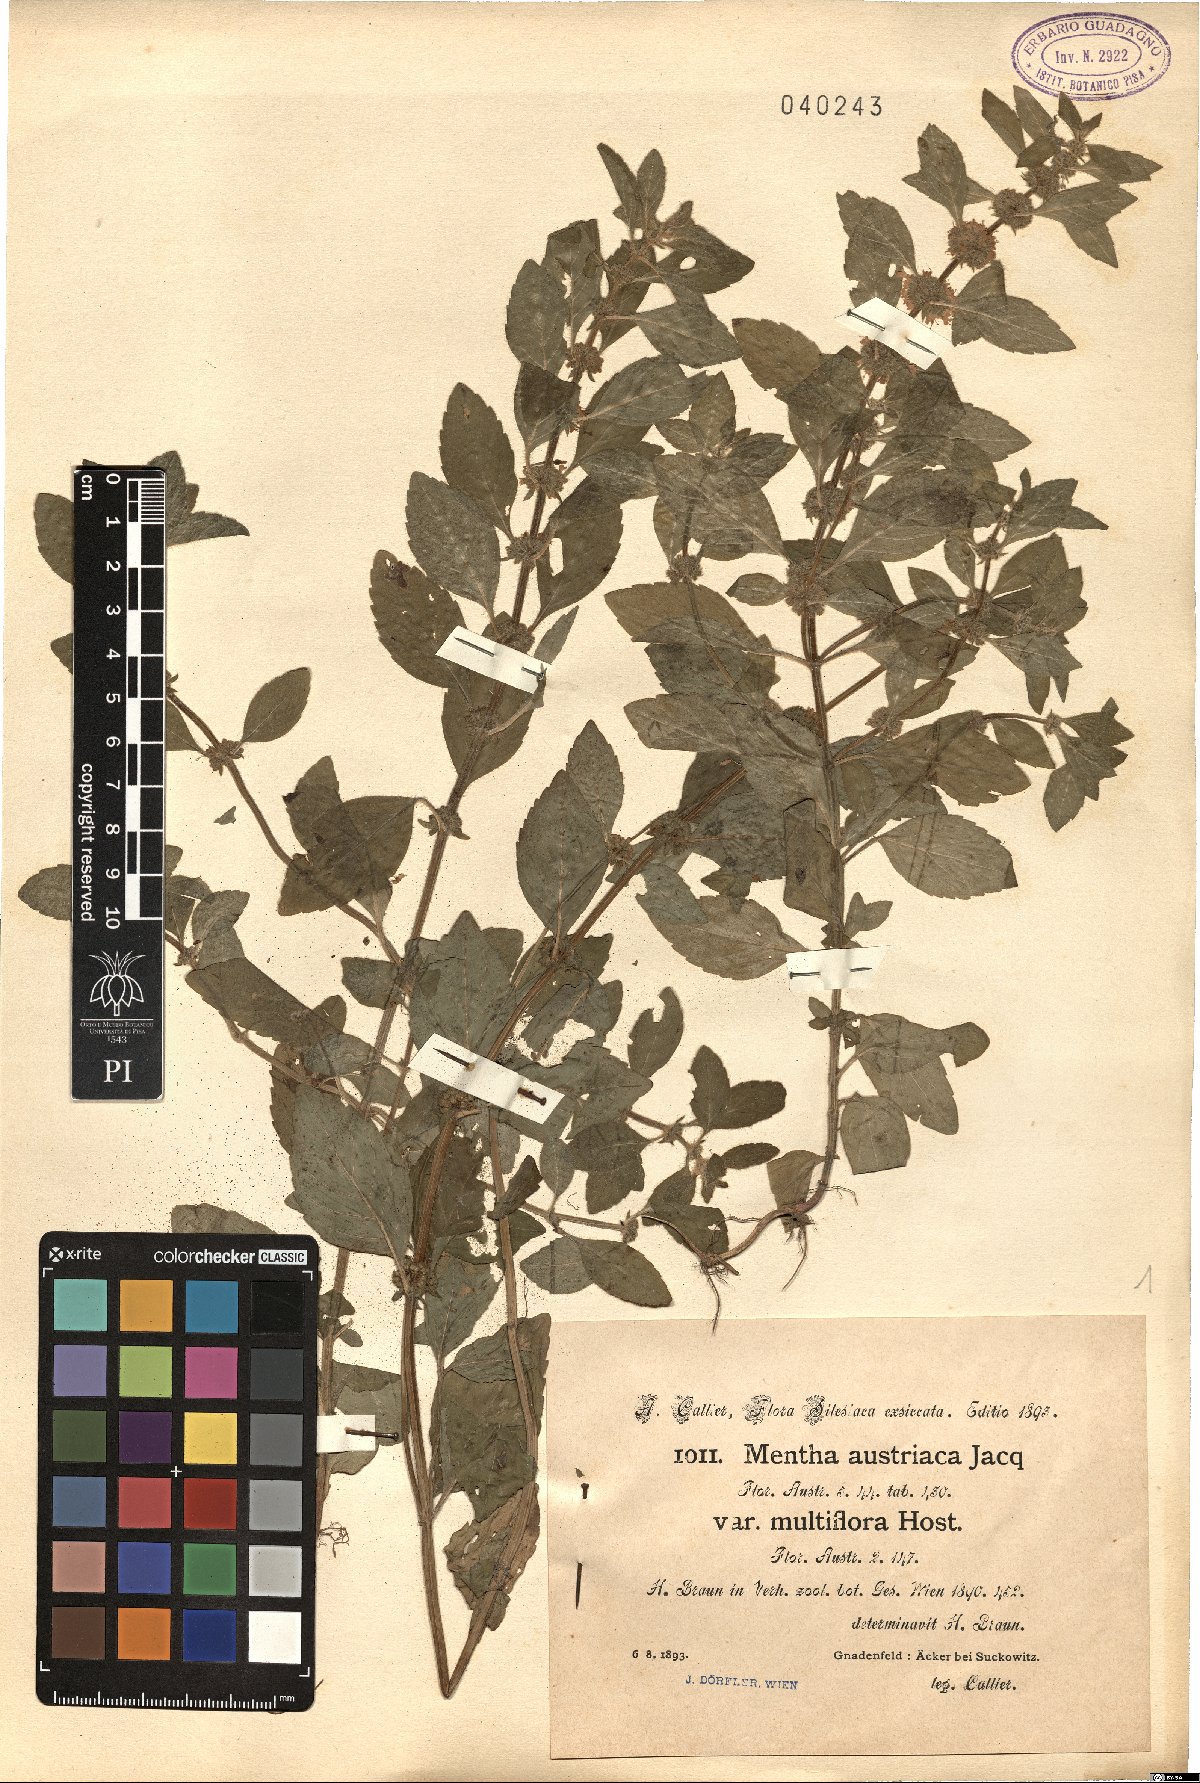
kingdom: Plantae
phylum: Tracheophyta
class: Magnoliopsida
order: Lamiales
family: Lamiaceae
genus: Mentha
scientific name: Mentha arvensis
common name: Corn mint
